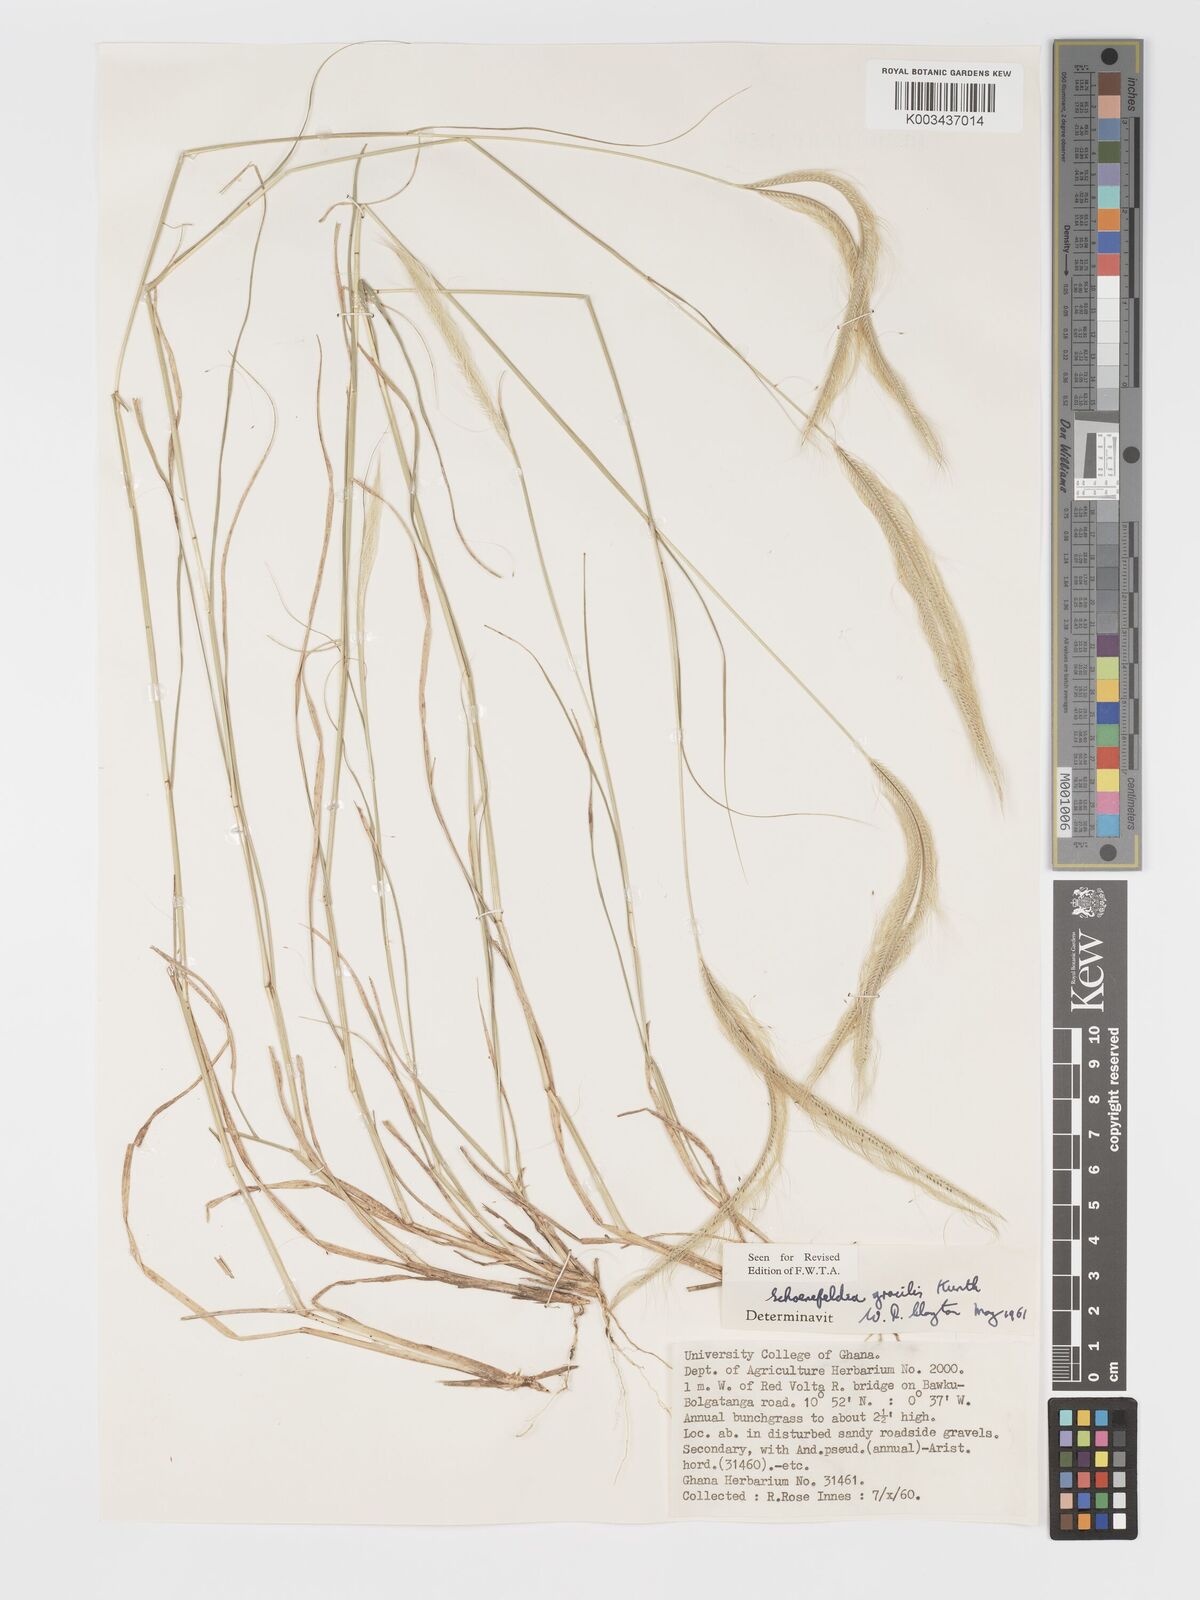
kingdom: Plantae
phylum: Tracheophyta
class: Liliopsida
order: Poales
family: Poaceae
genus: Schoenefeldia
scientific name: Schoenefeldia gracilis
